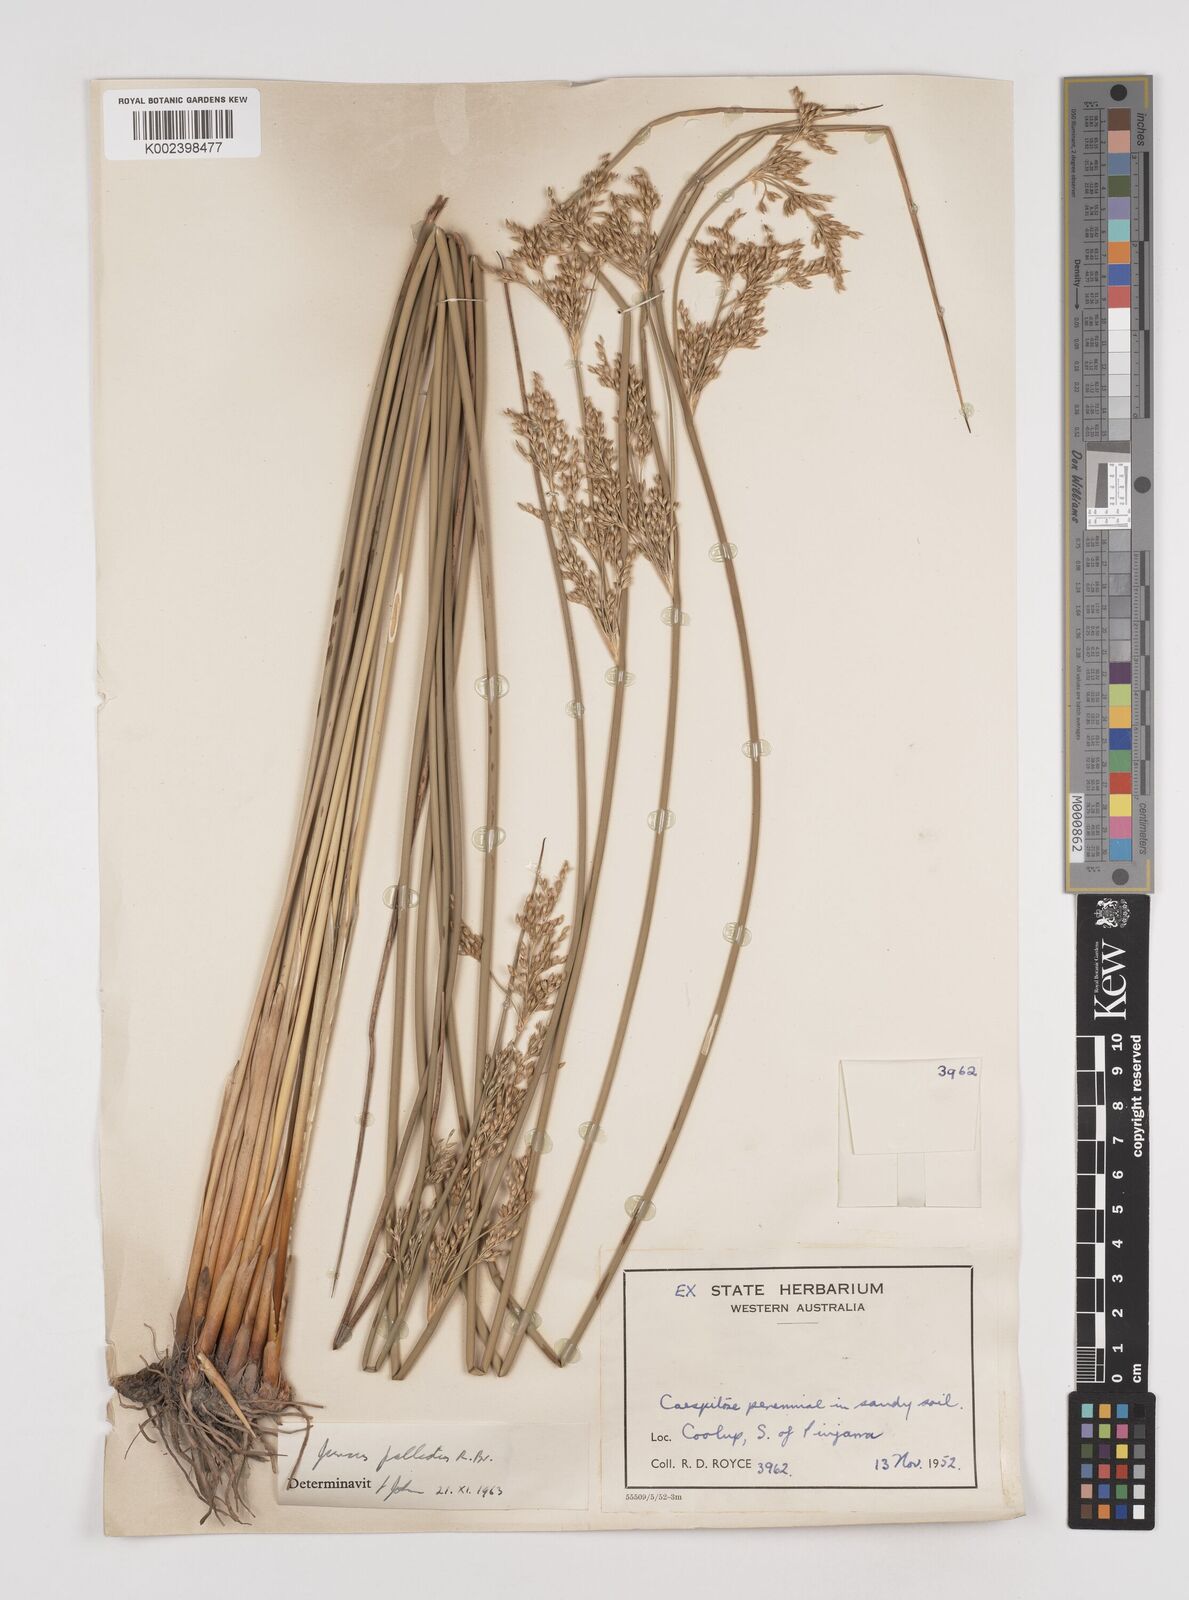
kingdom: Plantae
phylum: Tracheophyta
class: Liliopsida
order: Poales
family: Juncaceae
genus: Juncus
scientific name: Juncus pallidus
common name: Great soft-rush
